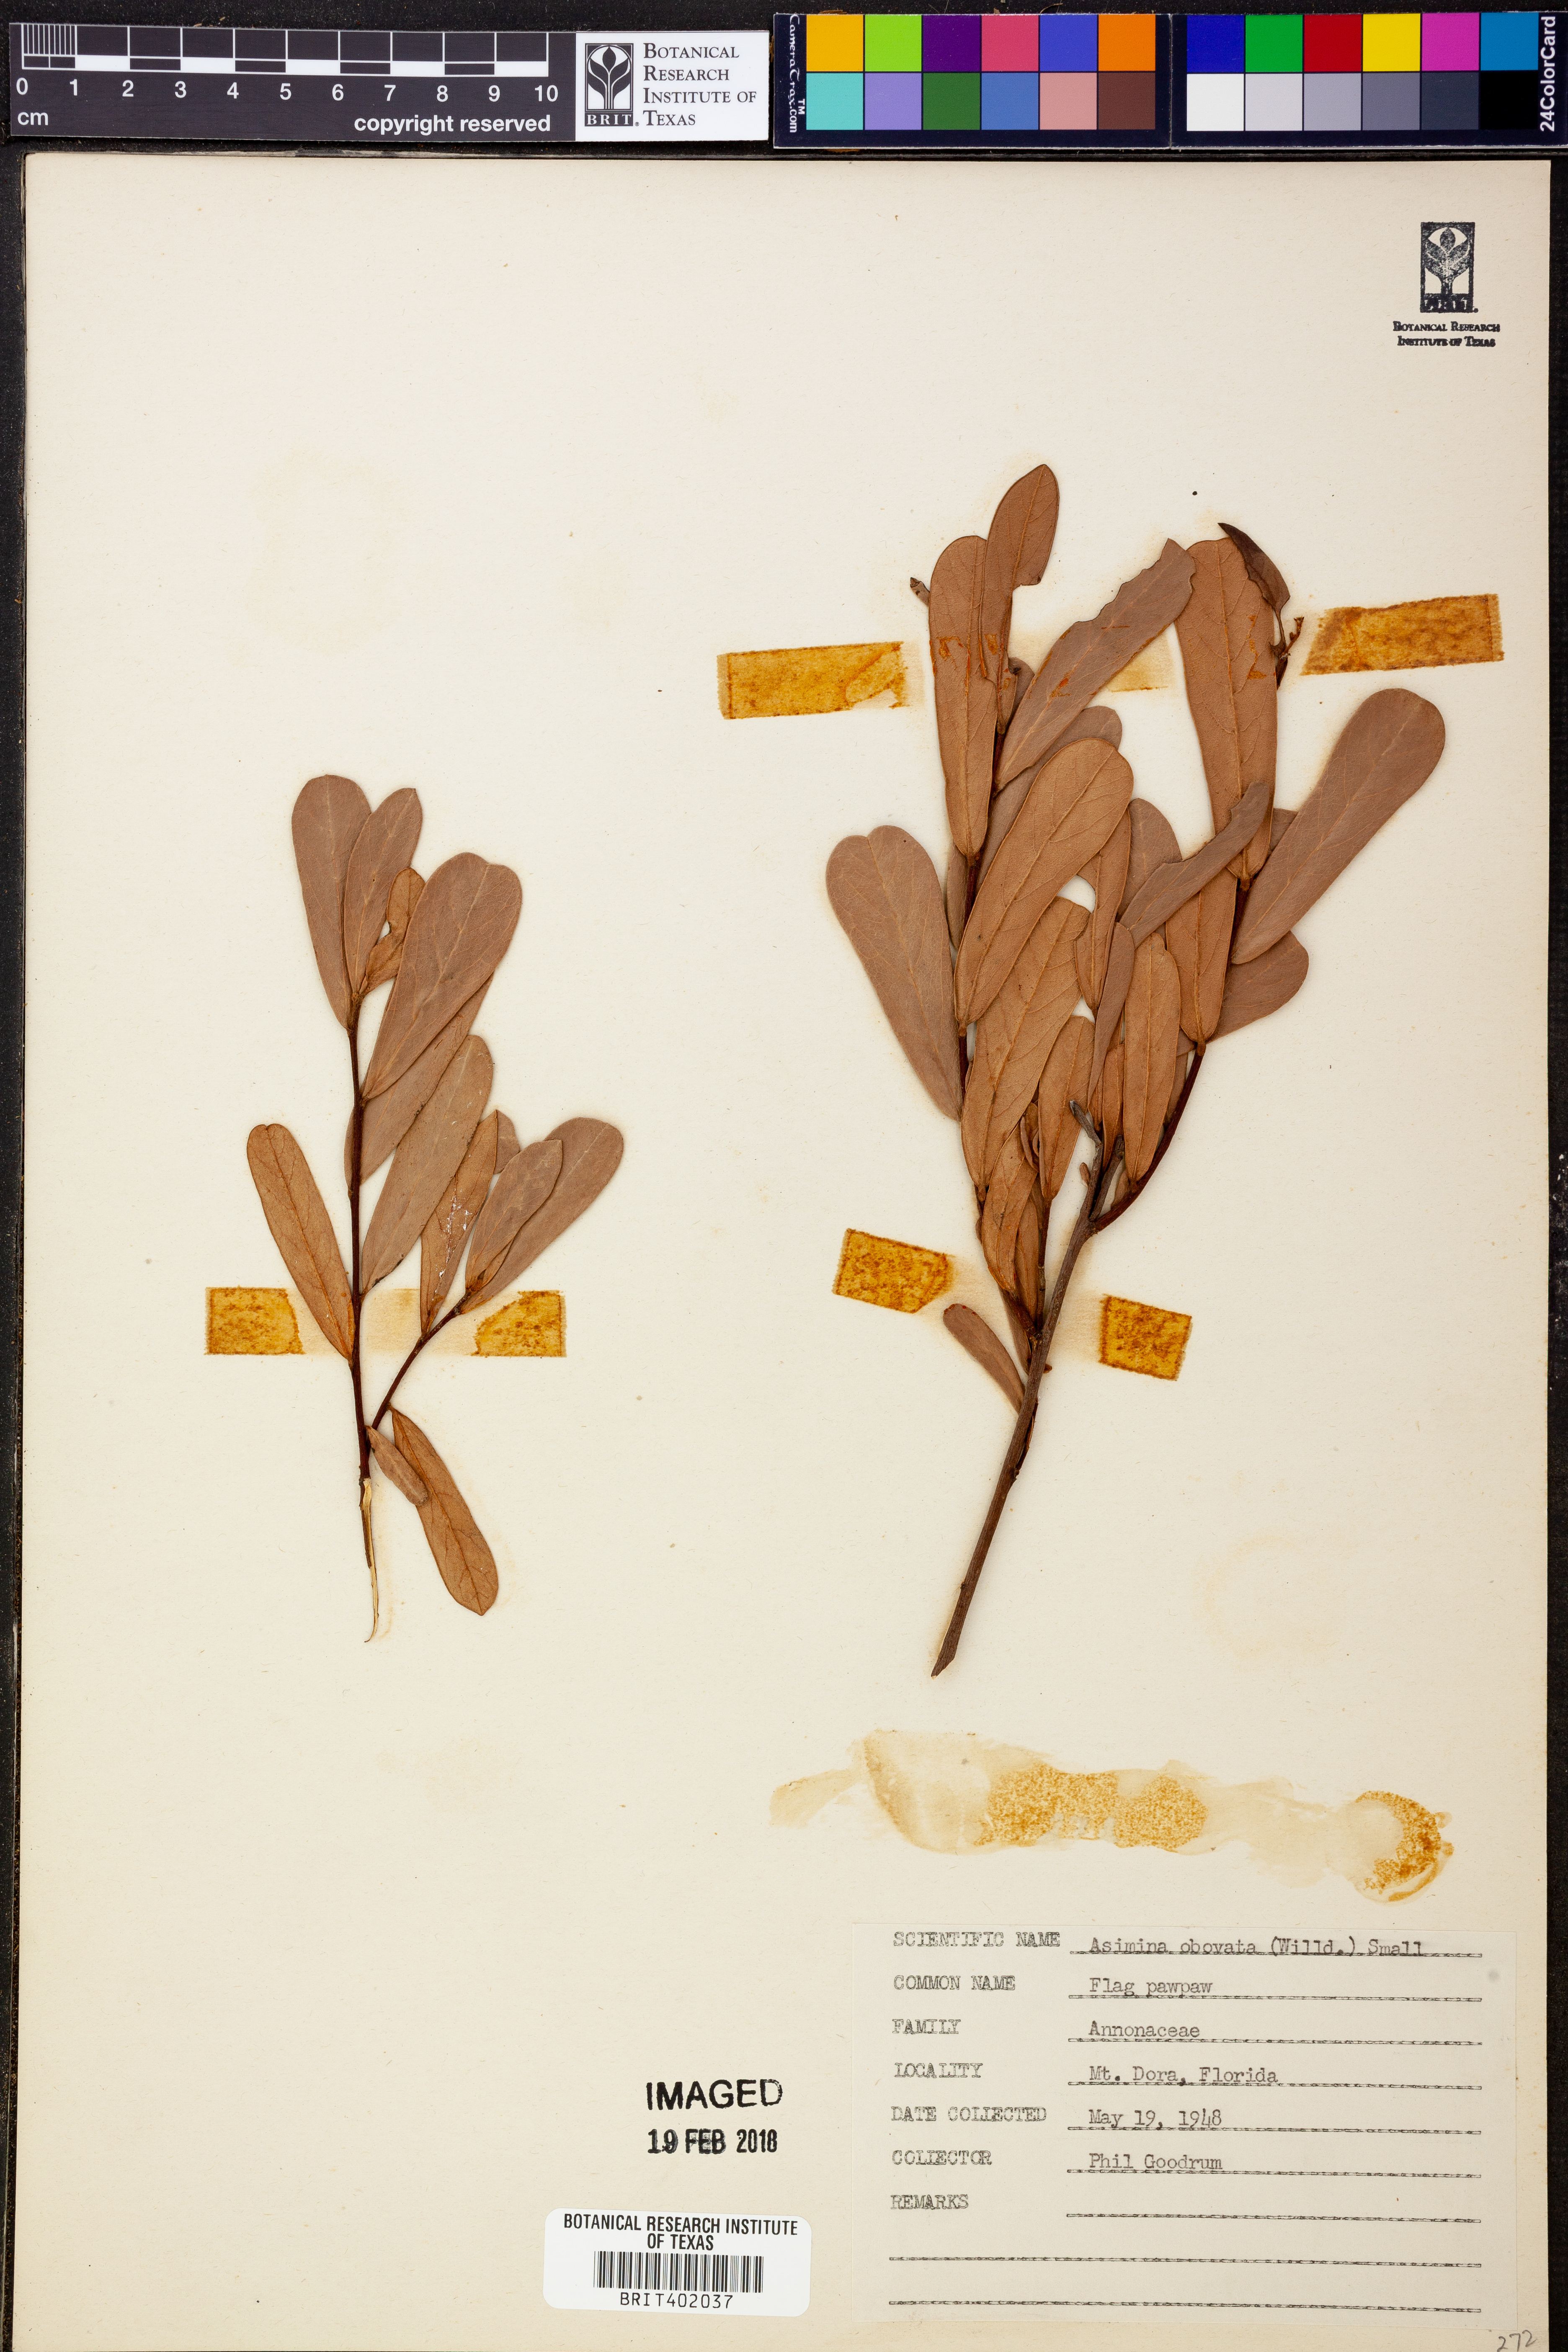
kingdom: Plantae
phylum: Tracheophyta
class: Magnoliopsida
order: Magnoliales
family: Annonaceae
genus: Asimina
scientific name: Asimina obovata
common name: Flag pawpaw
